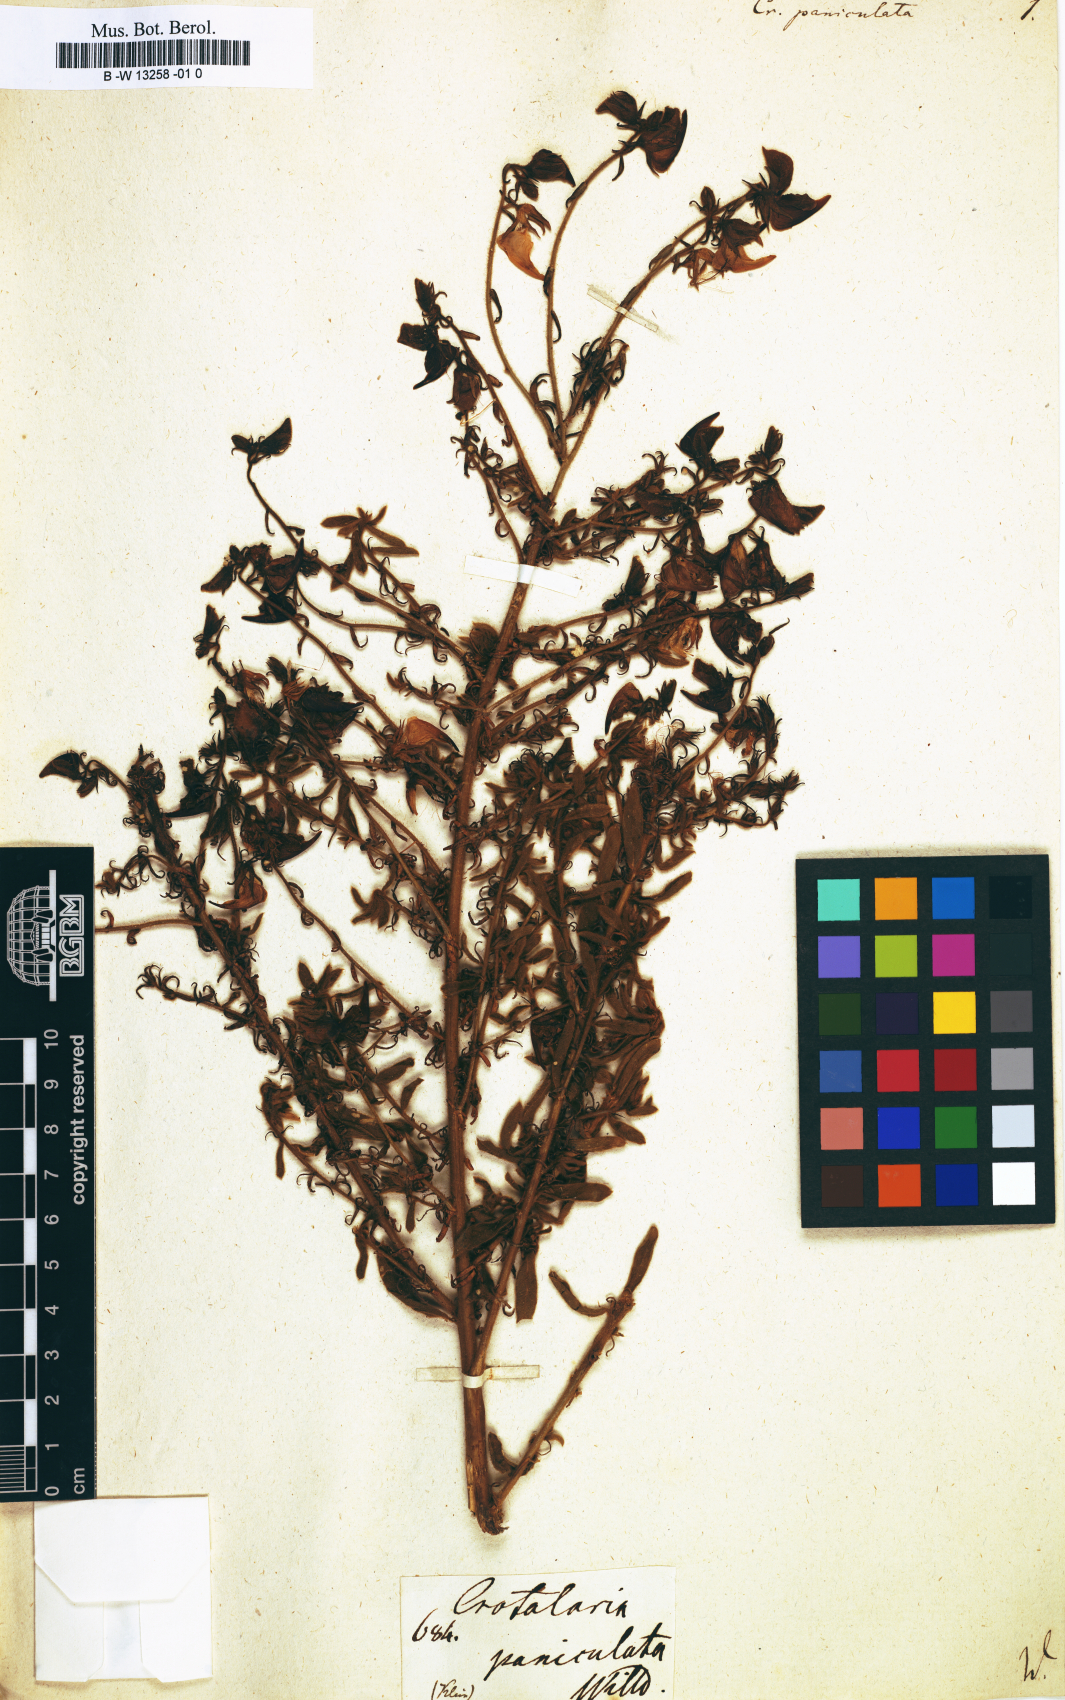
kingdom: Plantae
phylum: Tracheophyta
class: Magnoliopsida
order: Fabales
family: Fabaceae
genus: Crotalaria
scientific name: Crotalaria paniculata
